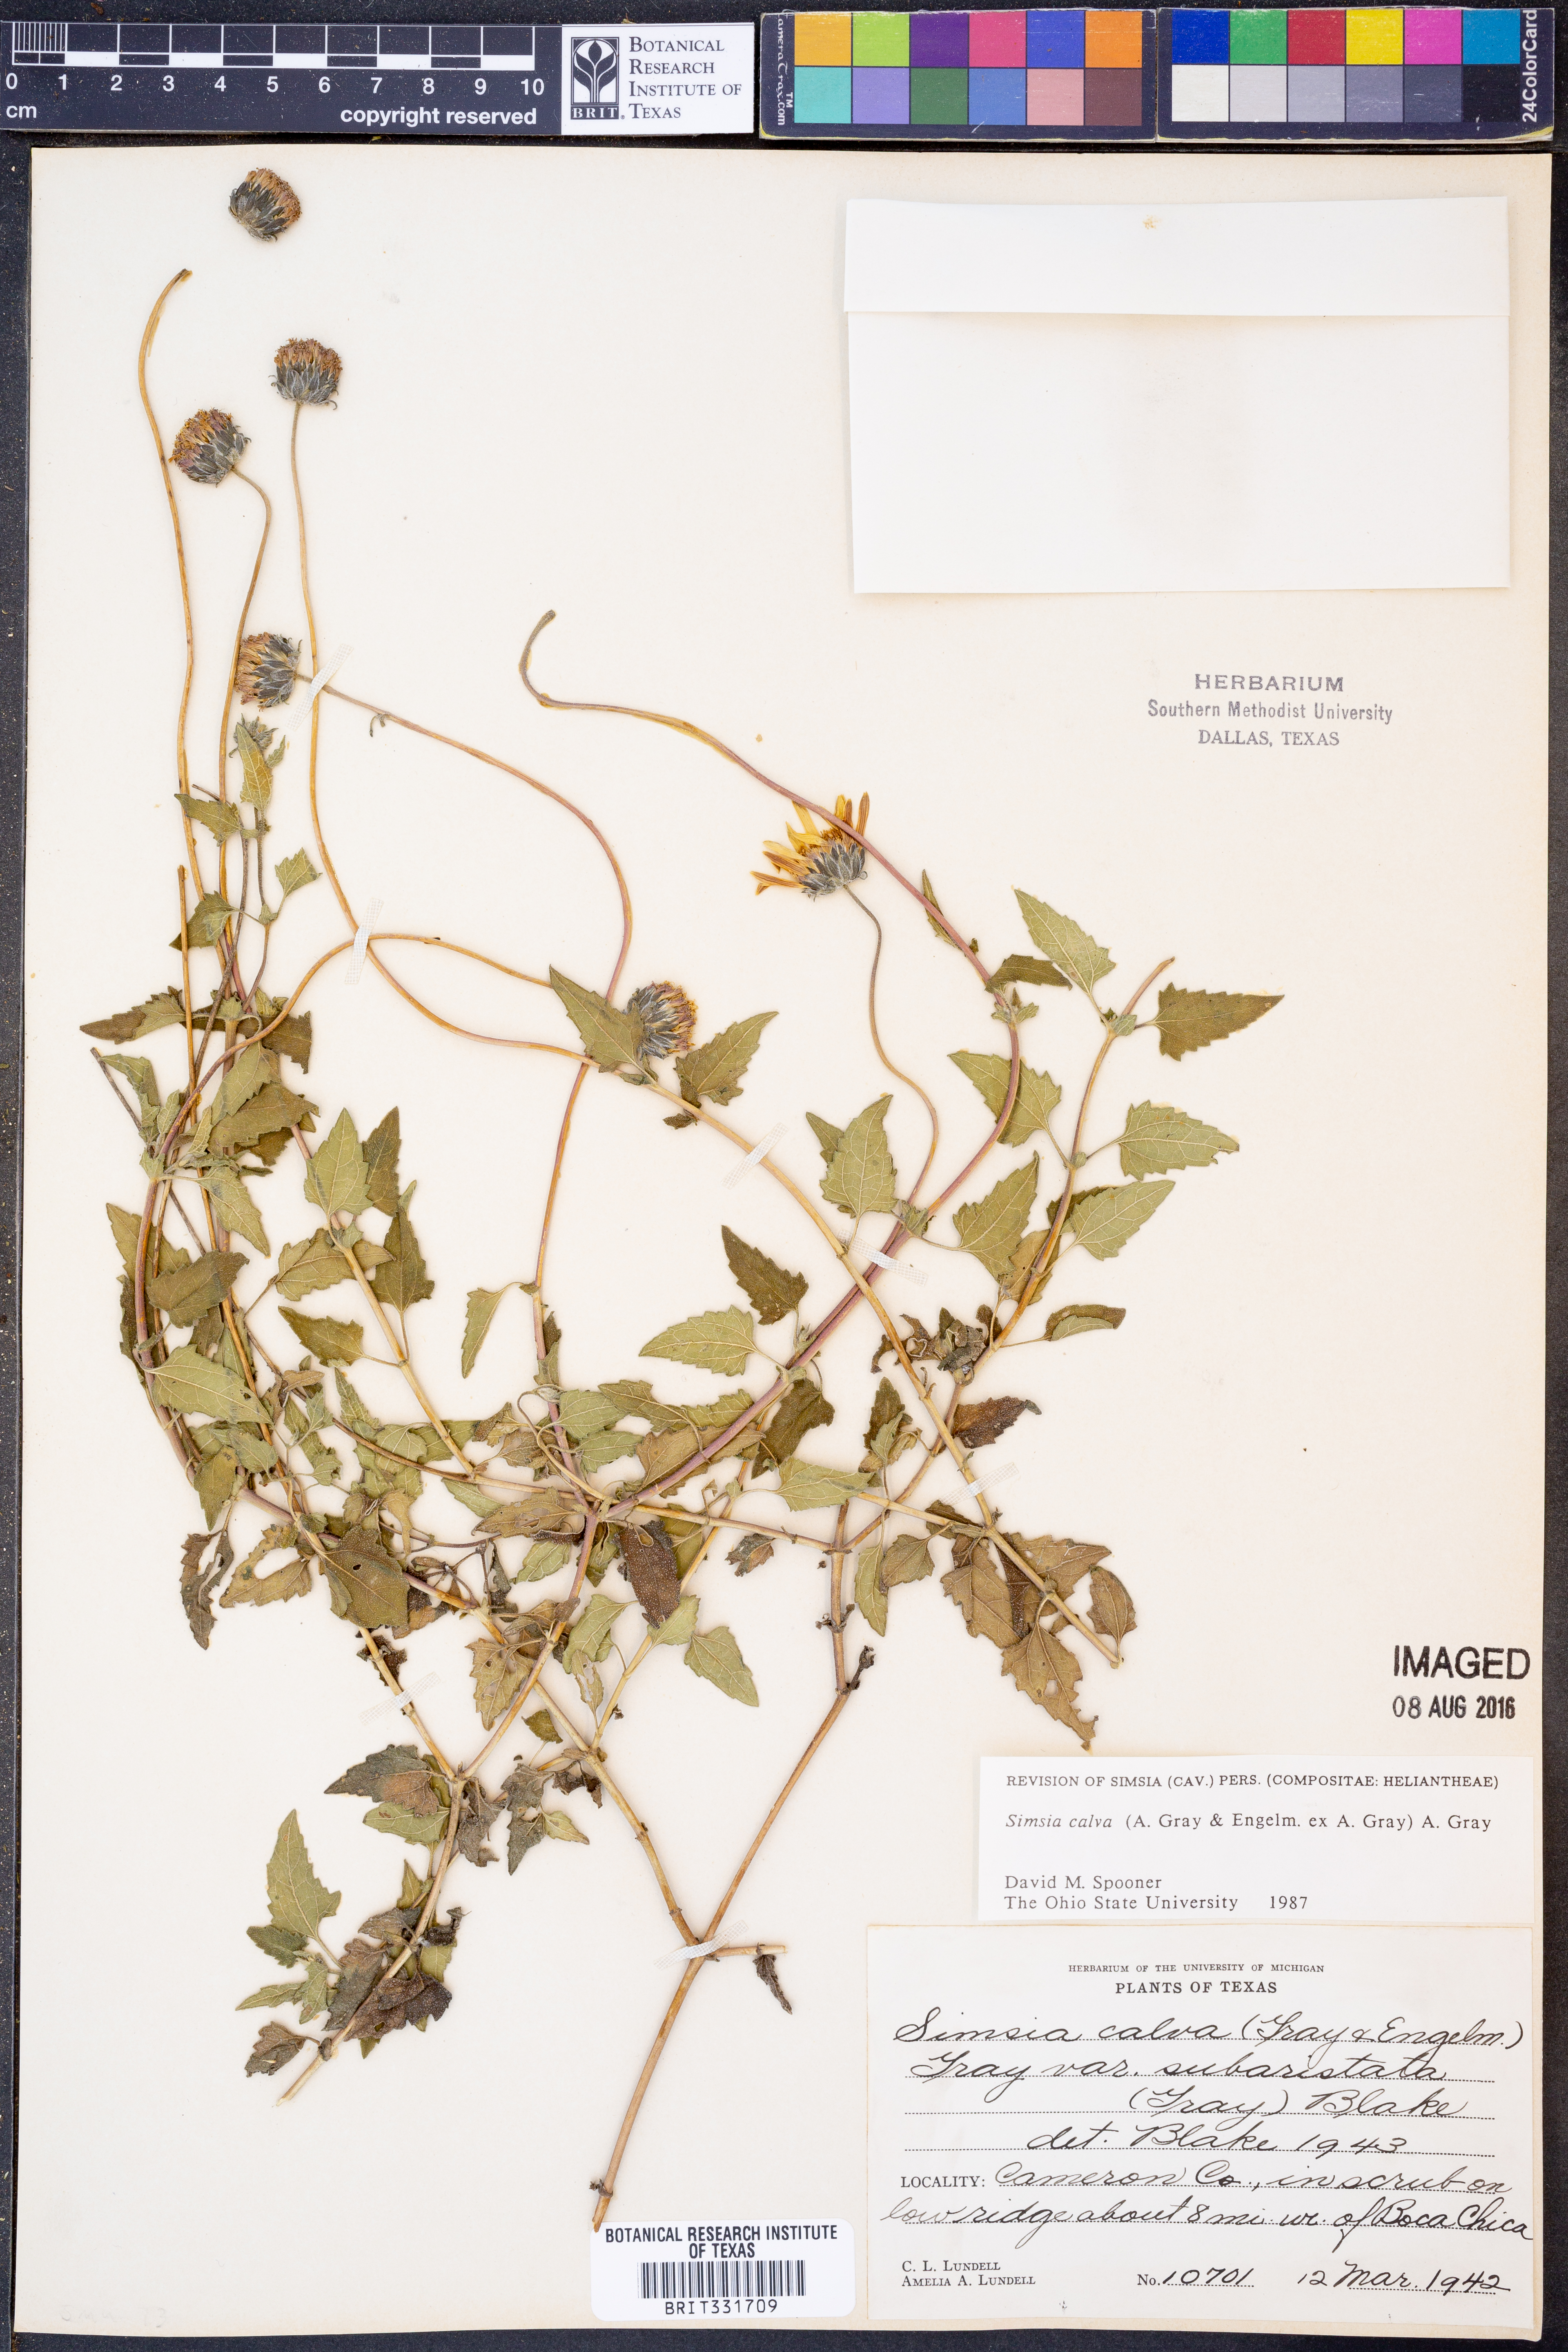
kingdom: Plantae
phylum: Tracheophyta
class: Magnoliopsida
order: Asterales
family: Asteraceae
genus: Simsia
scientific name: Simsia calva
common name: Awnless bush-sunflower
